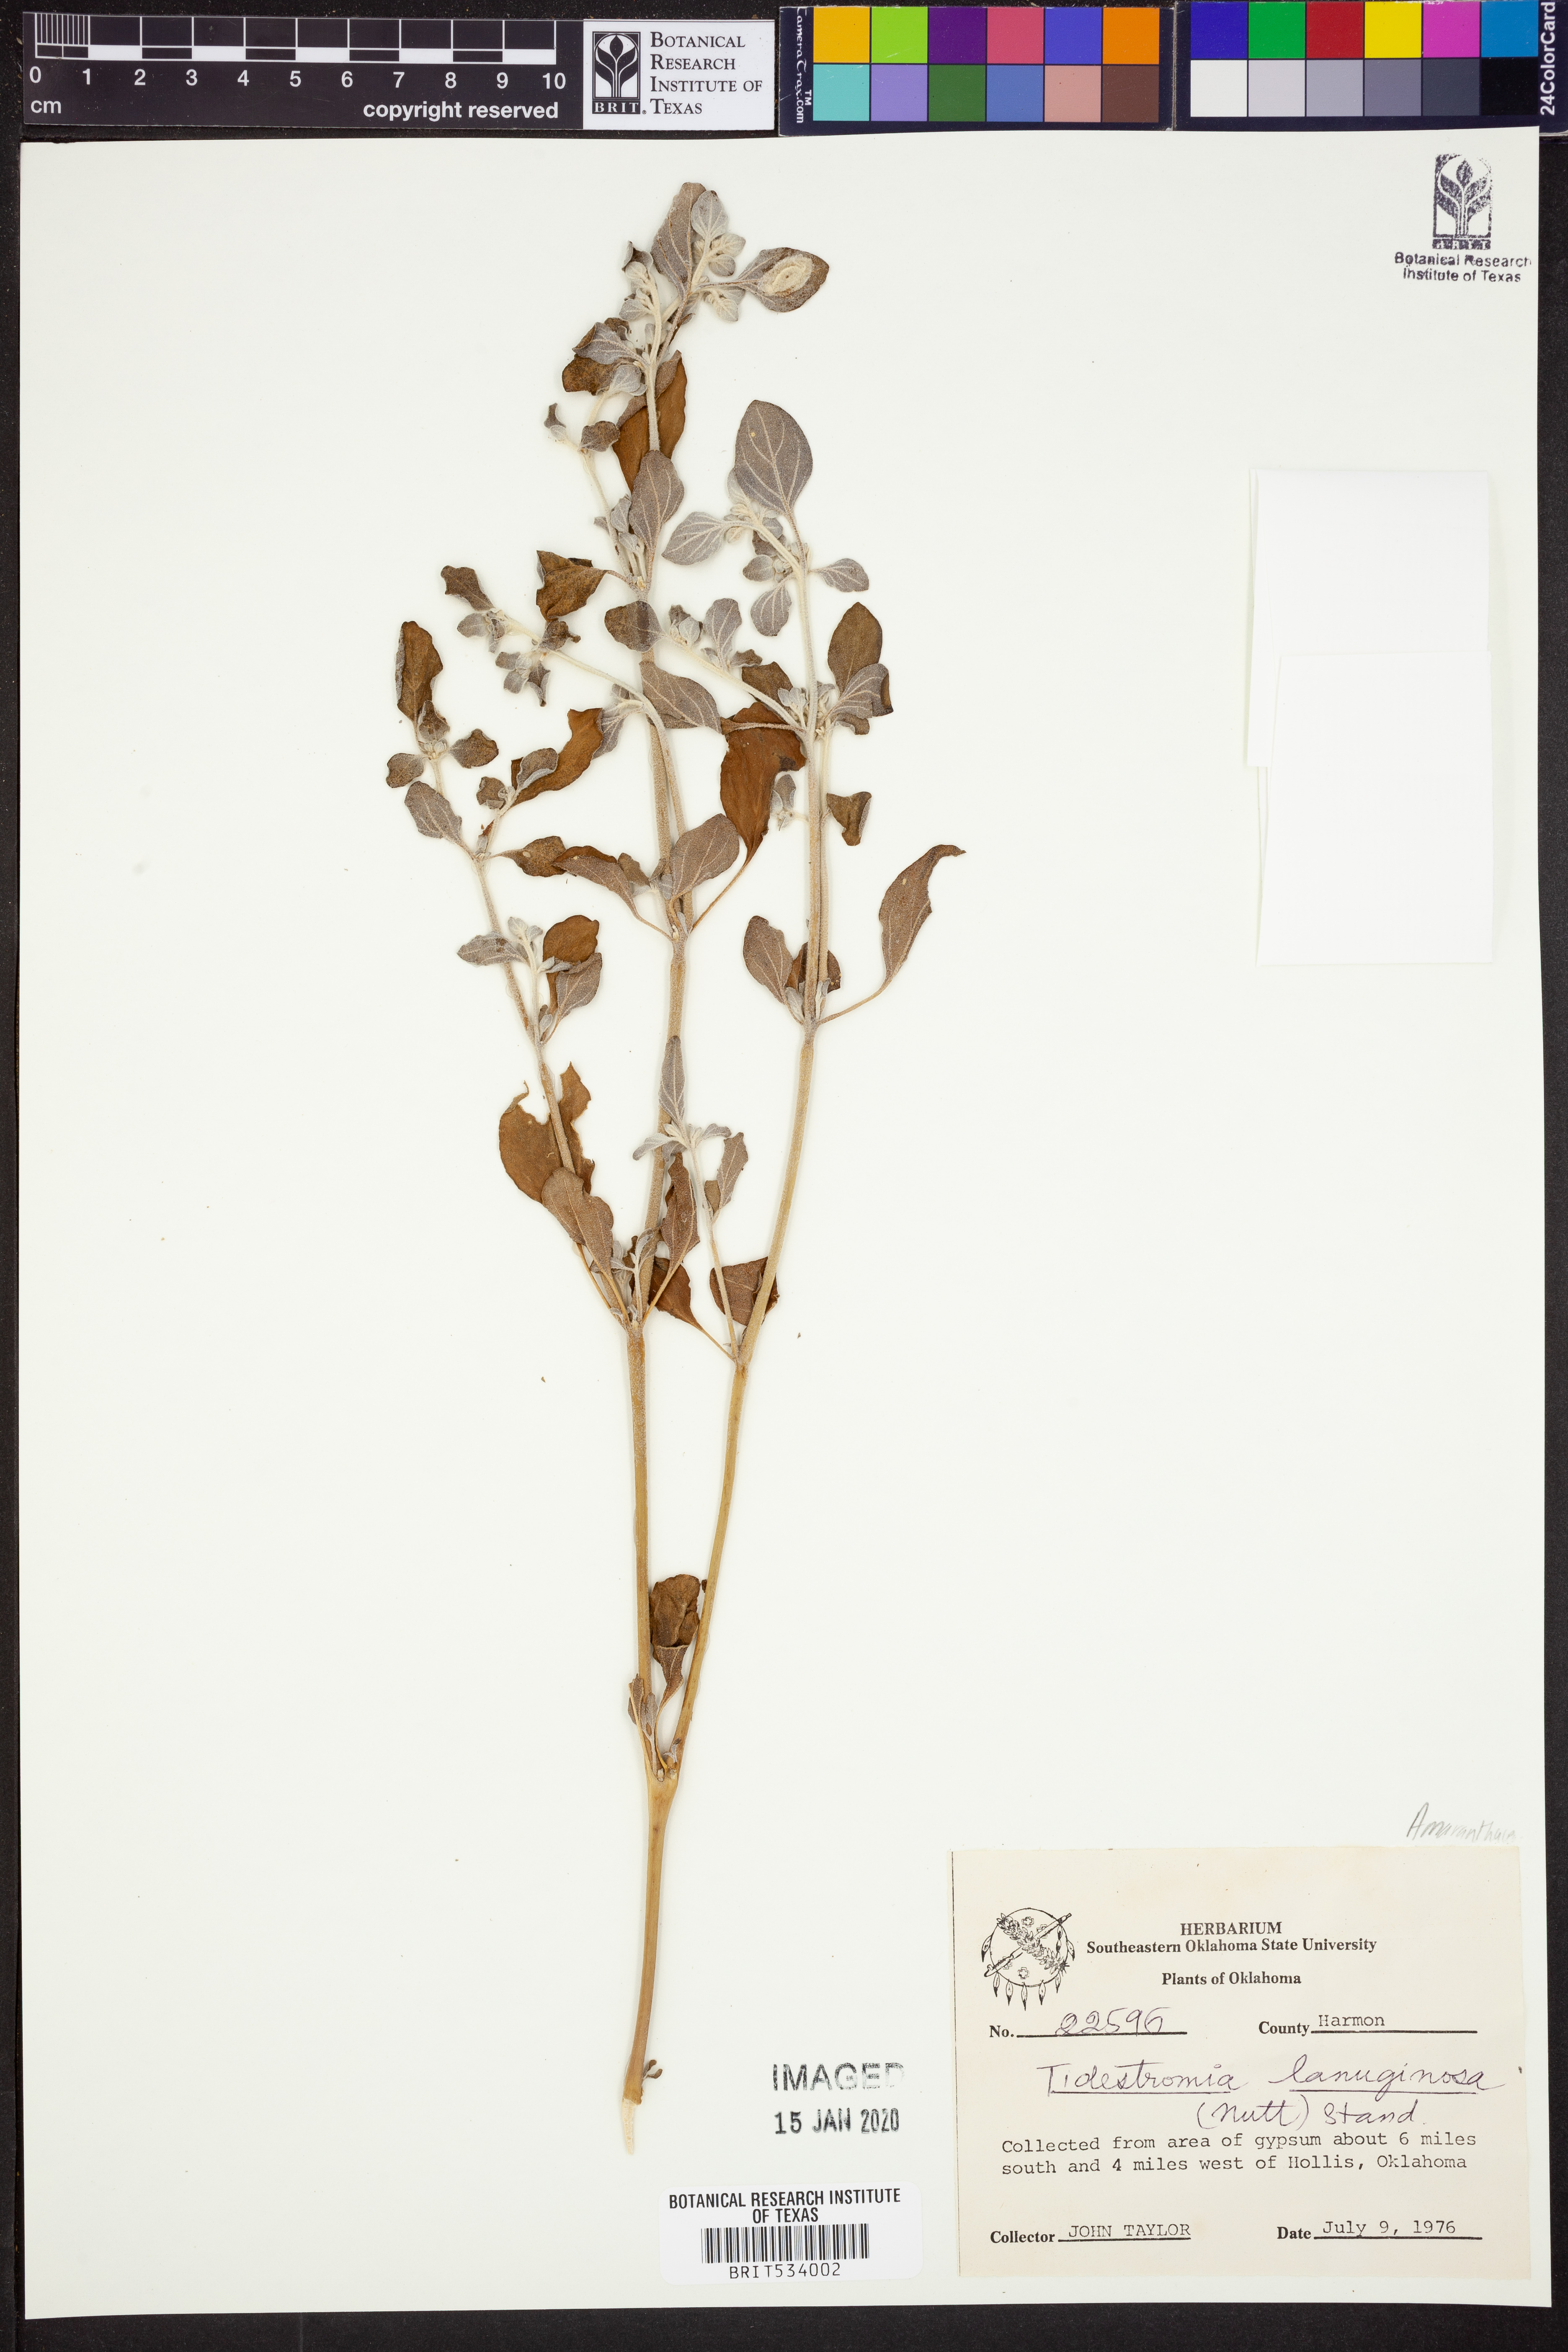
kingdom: Plantae
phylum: Tracheophyta
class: Magnoliopsida
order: Caryophyllales
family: Amaranthaceae
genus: Tidestromia
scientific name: Tidestromia lanuginosa
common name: Woolly tidestromia
